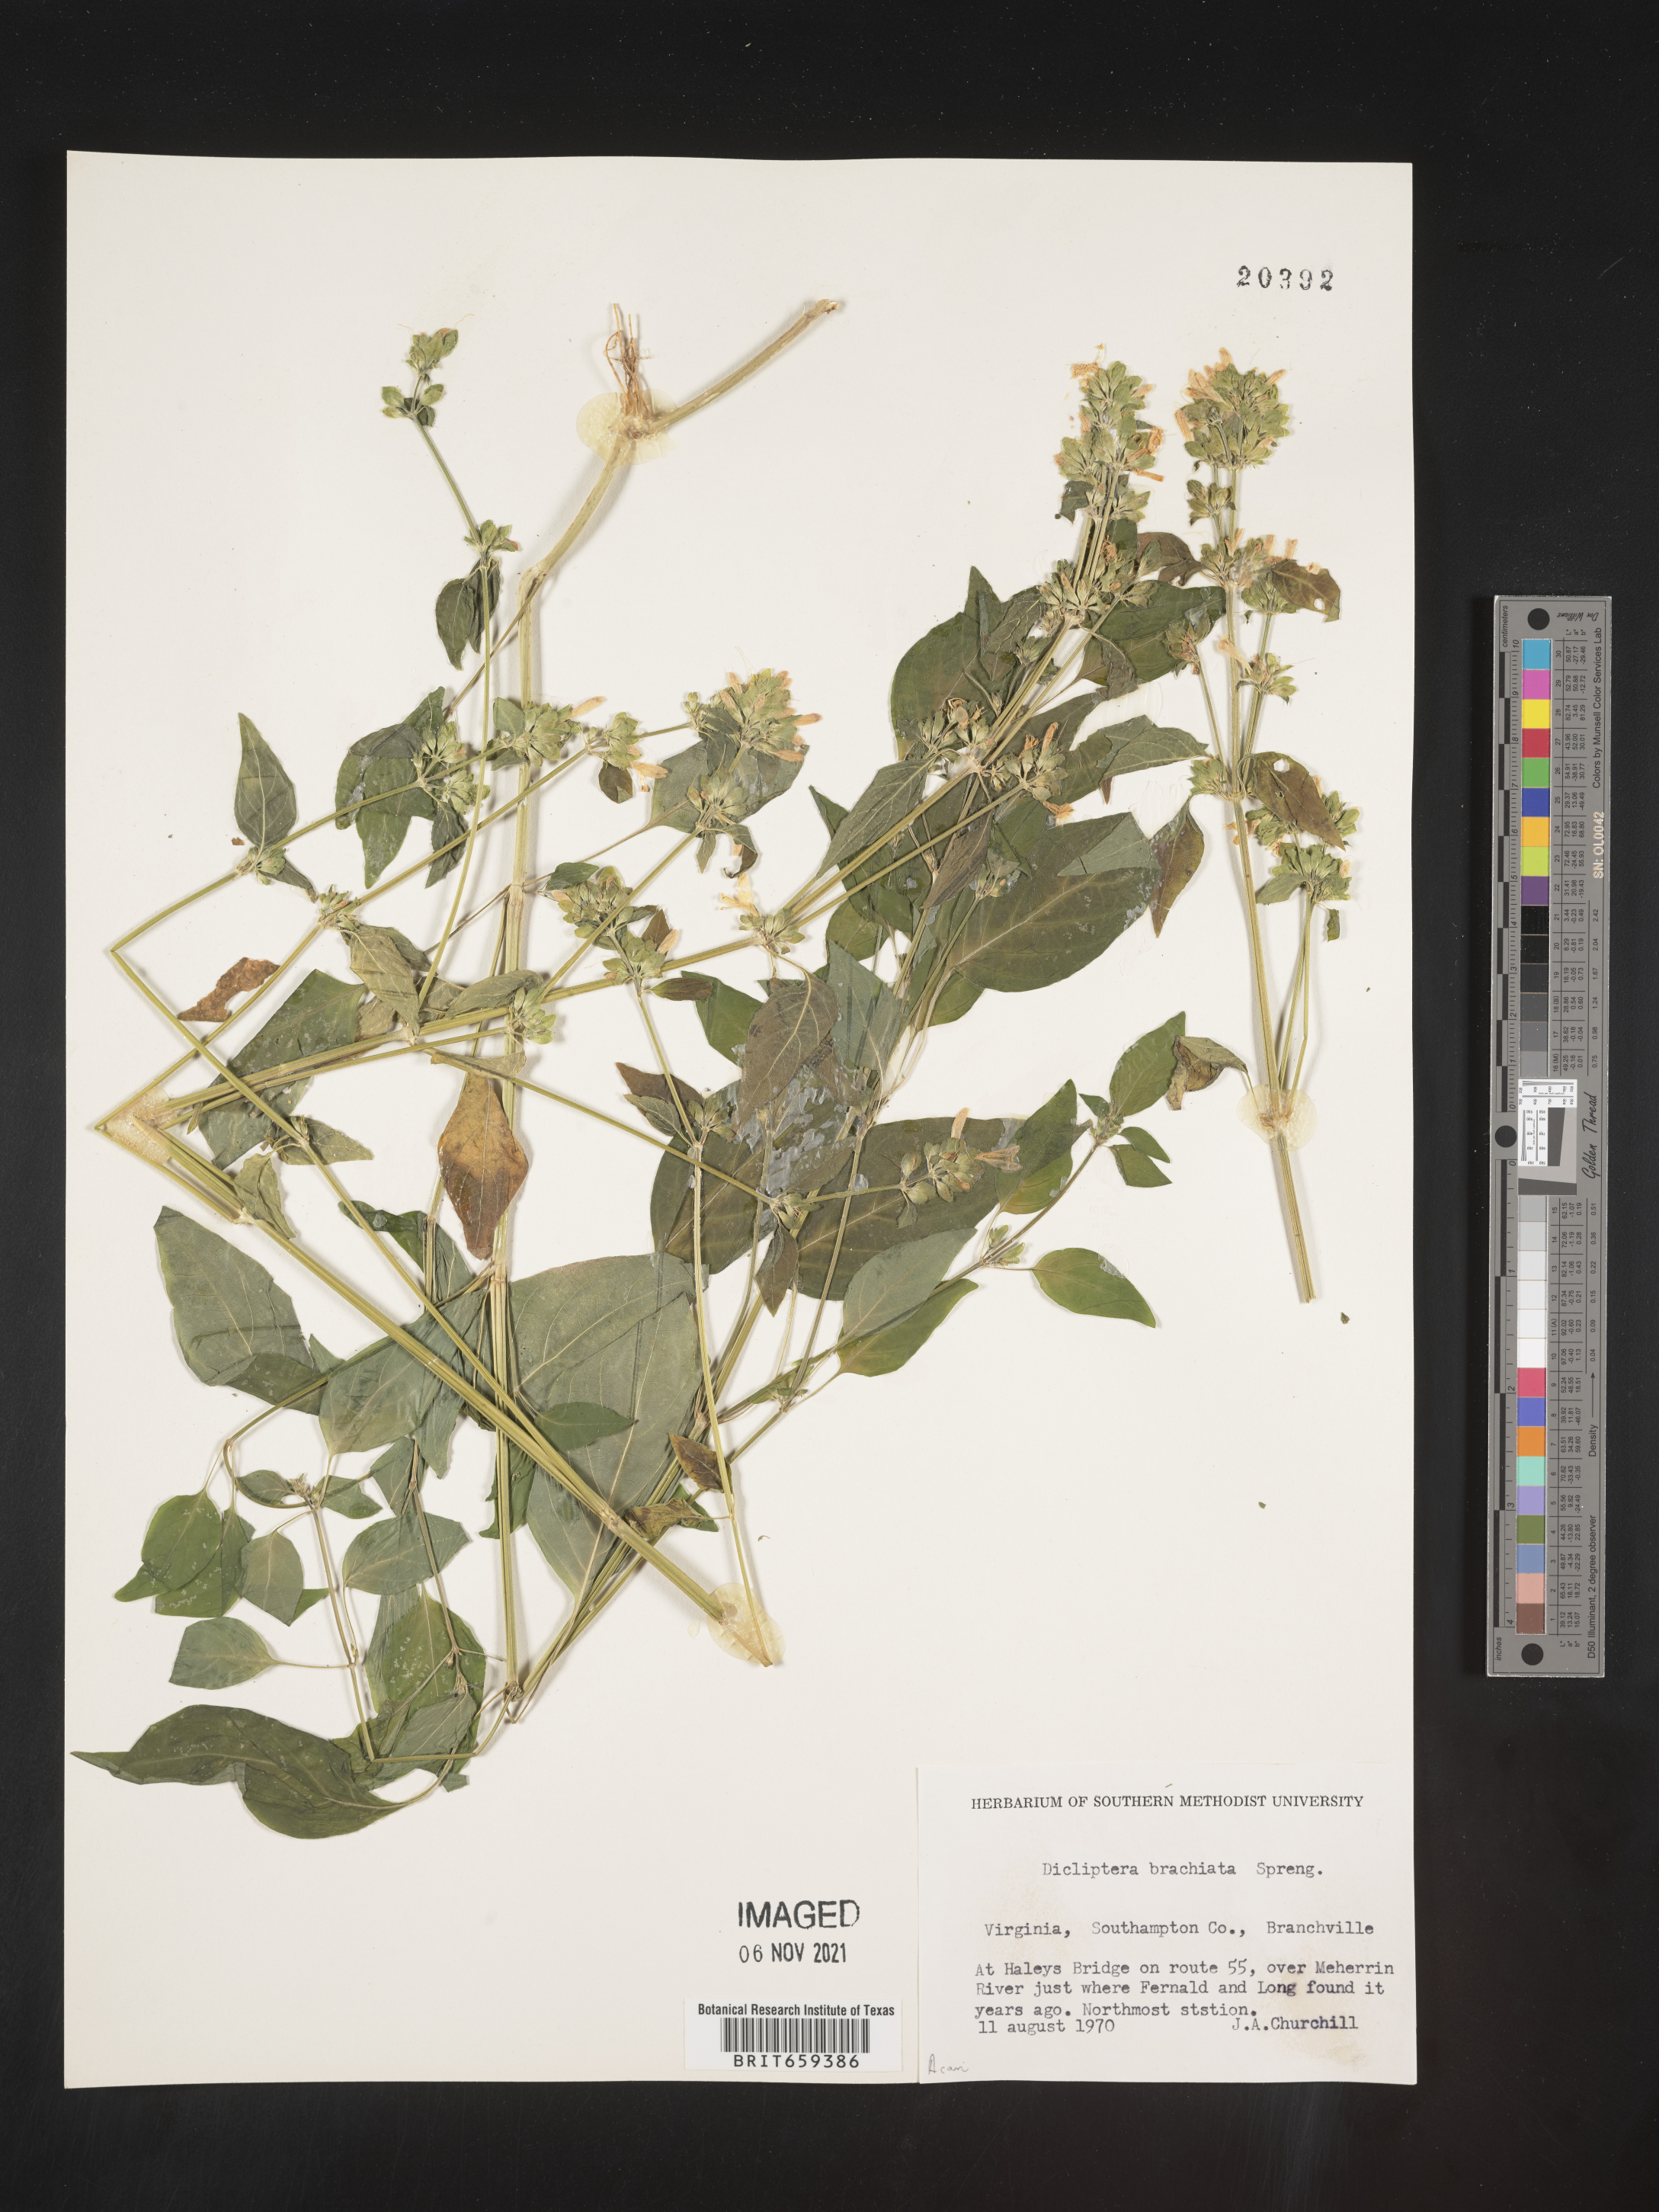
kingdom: Plantae
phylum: Tracheophyta
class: Magnoliopsida
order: Lamiales
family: Acanthaceae
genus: Dicliptera
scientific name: Dicliptera brachiata
